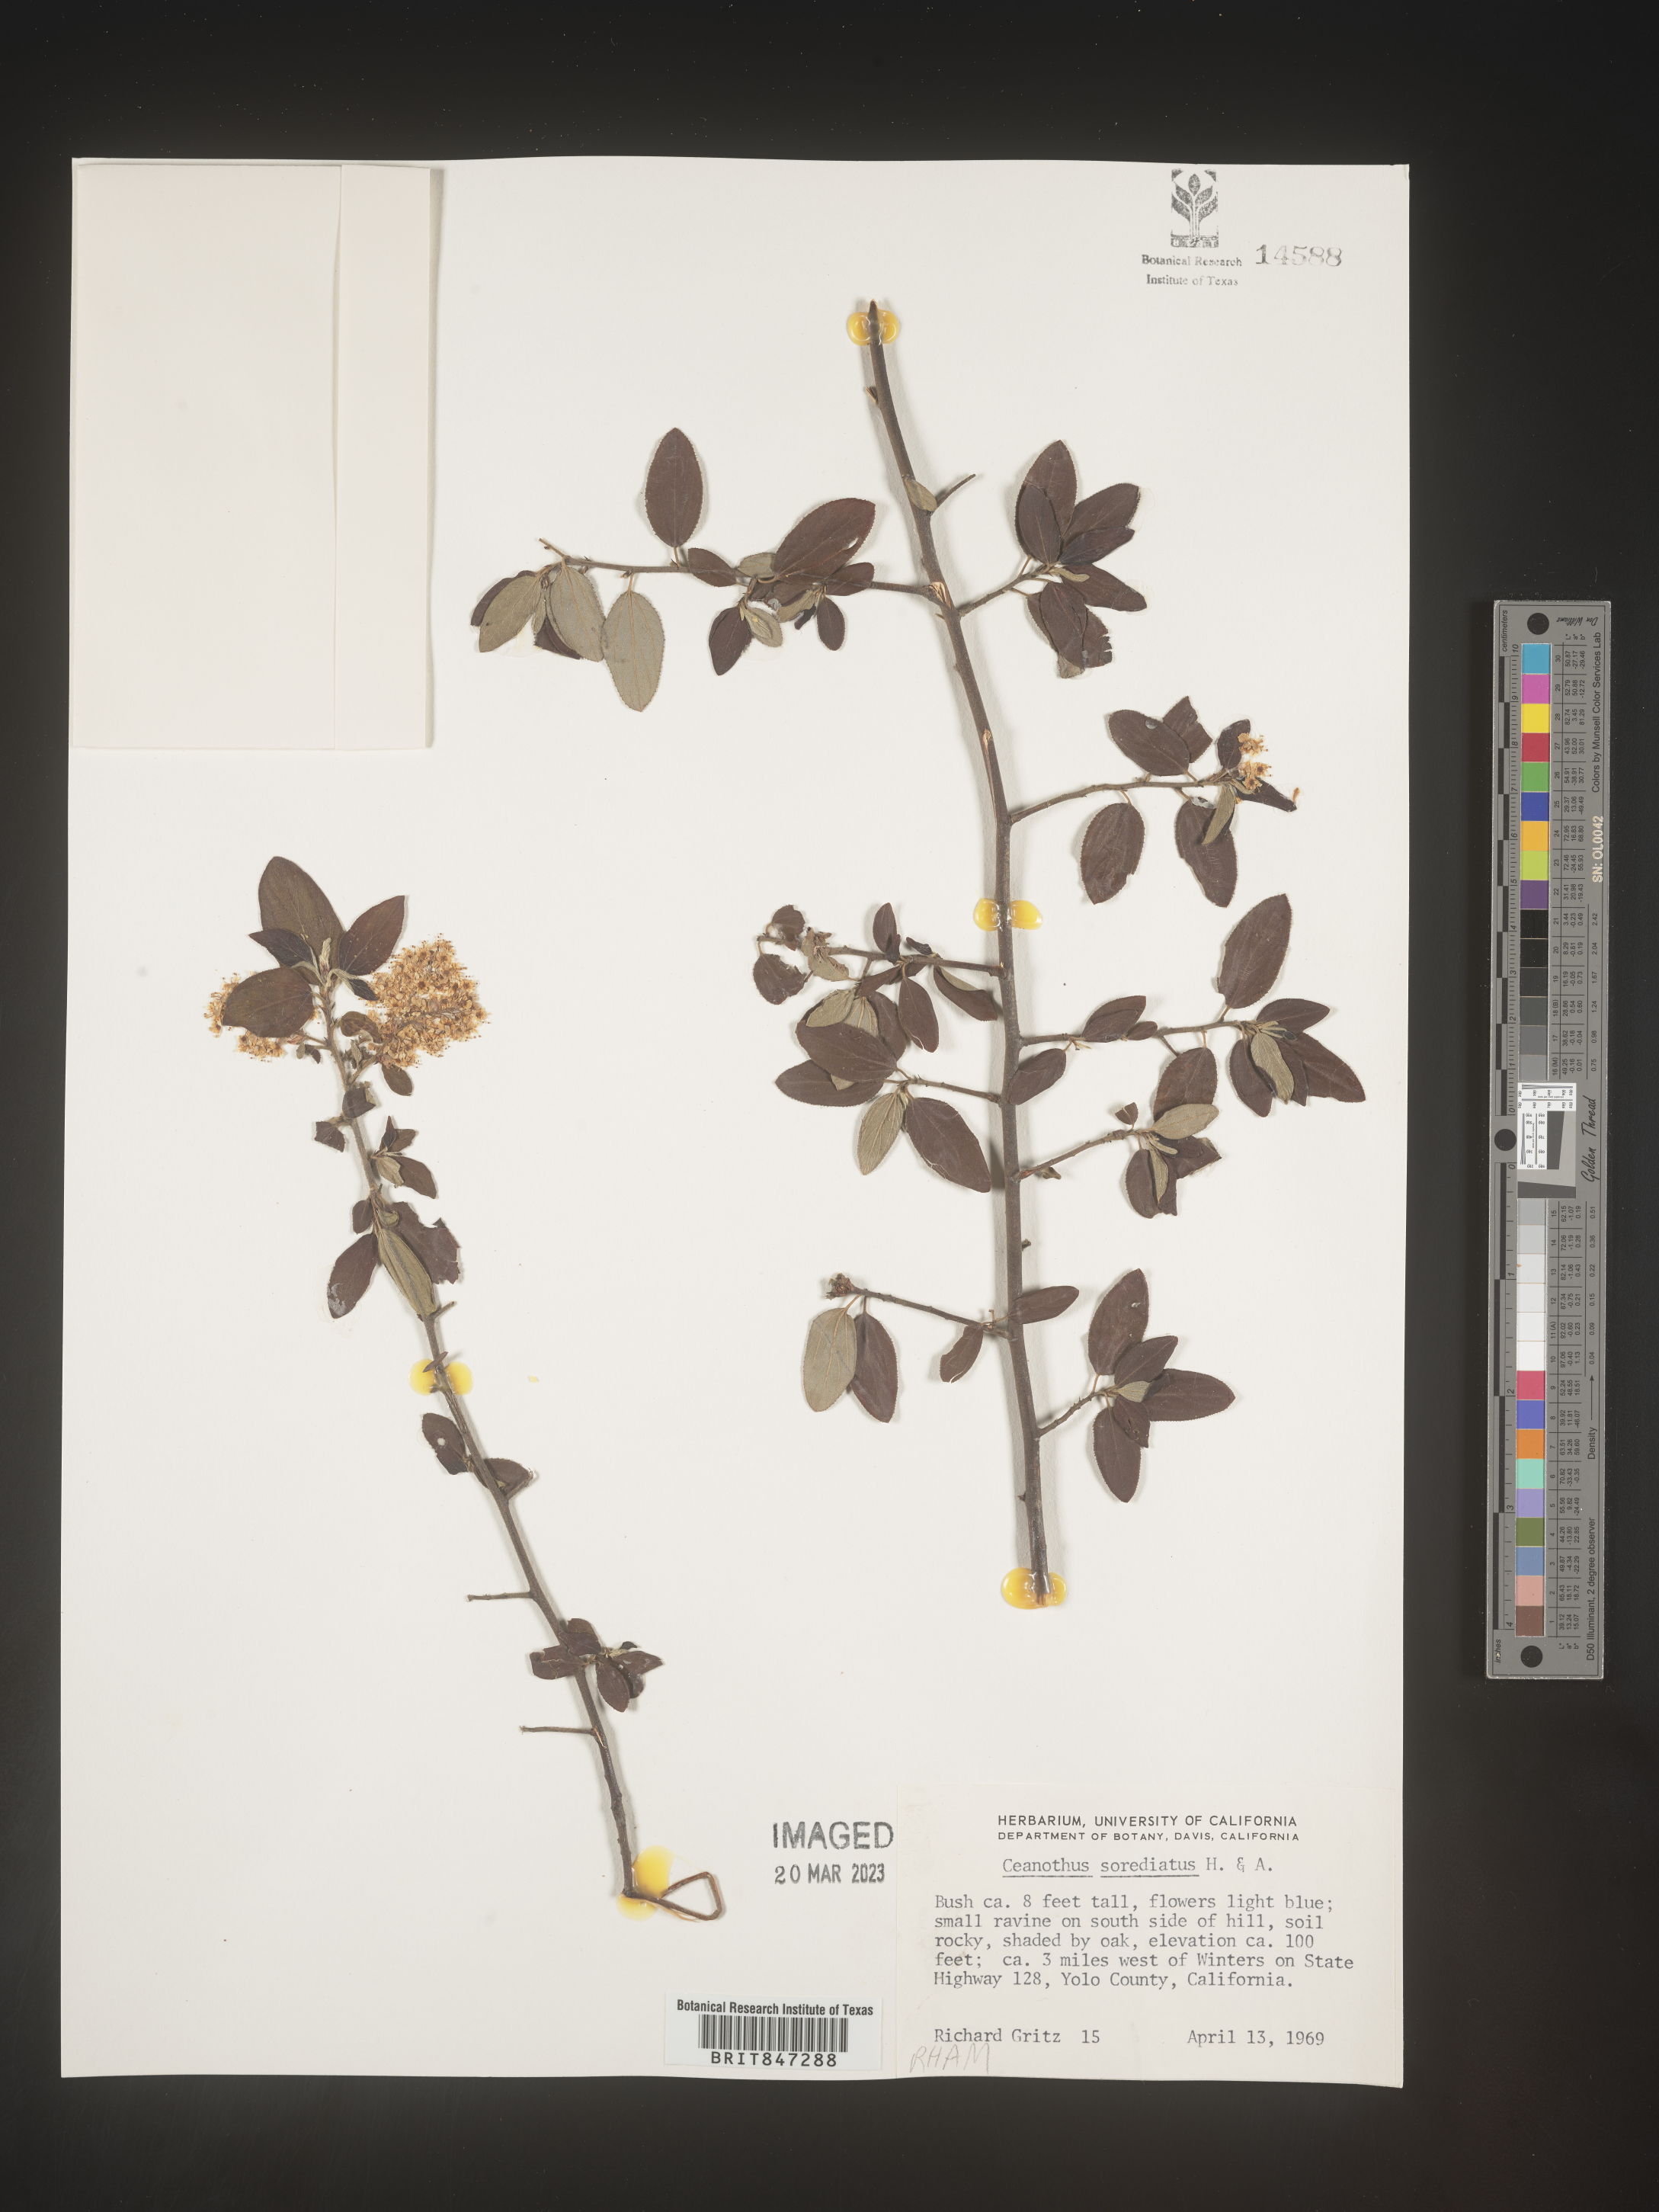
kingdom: Plantae
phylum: Tracheophyta
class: Magnoliopsida
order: Rosales
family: Rhamnaceae
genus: Ceanothus
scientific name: Ceanothus
